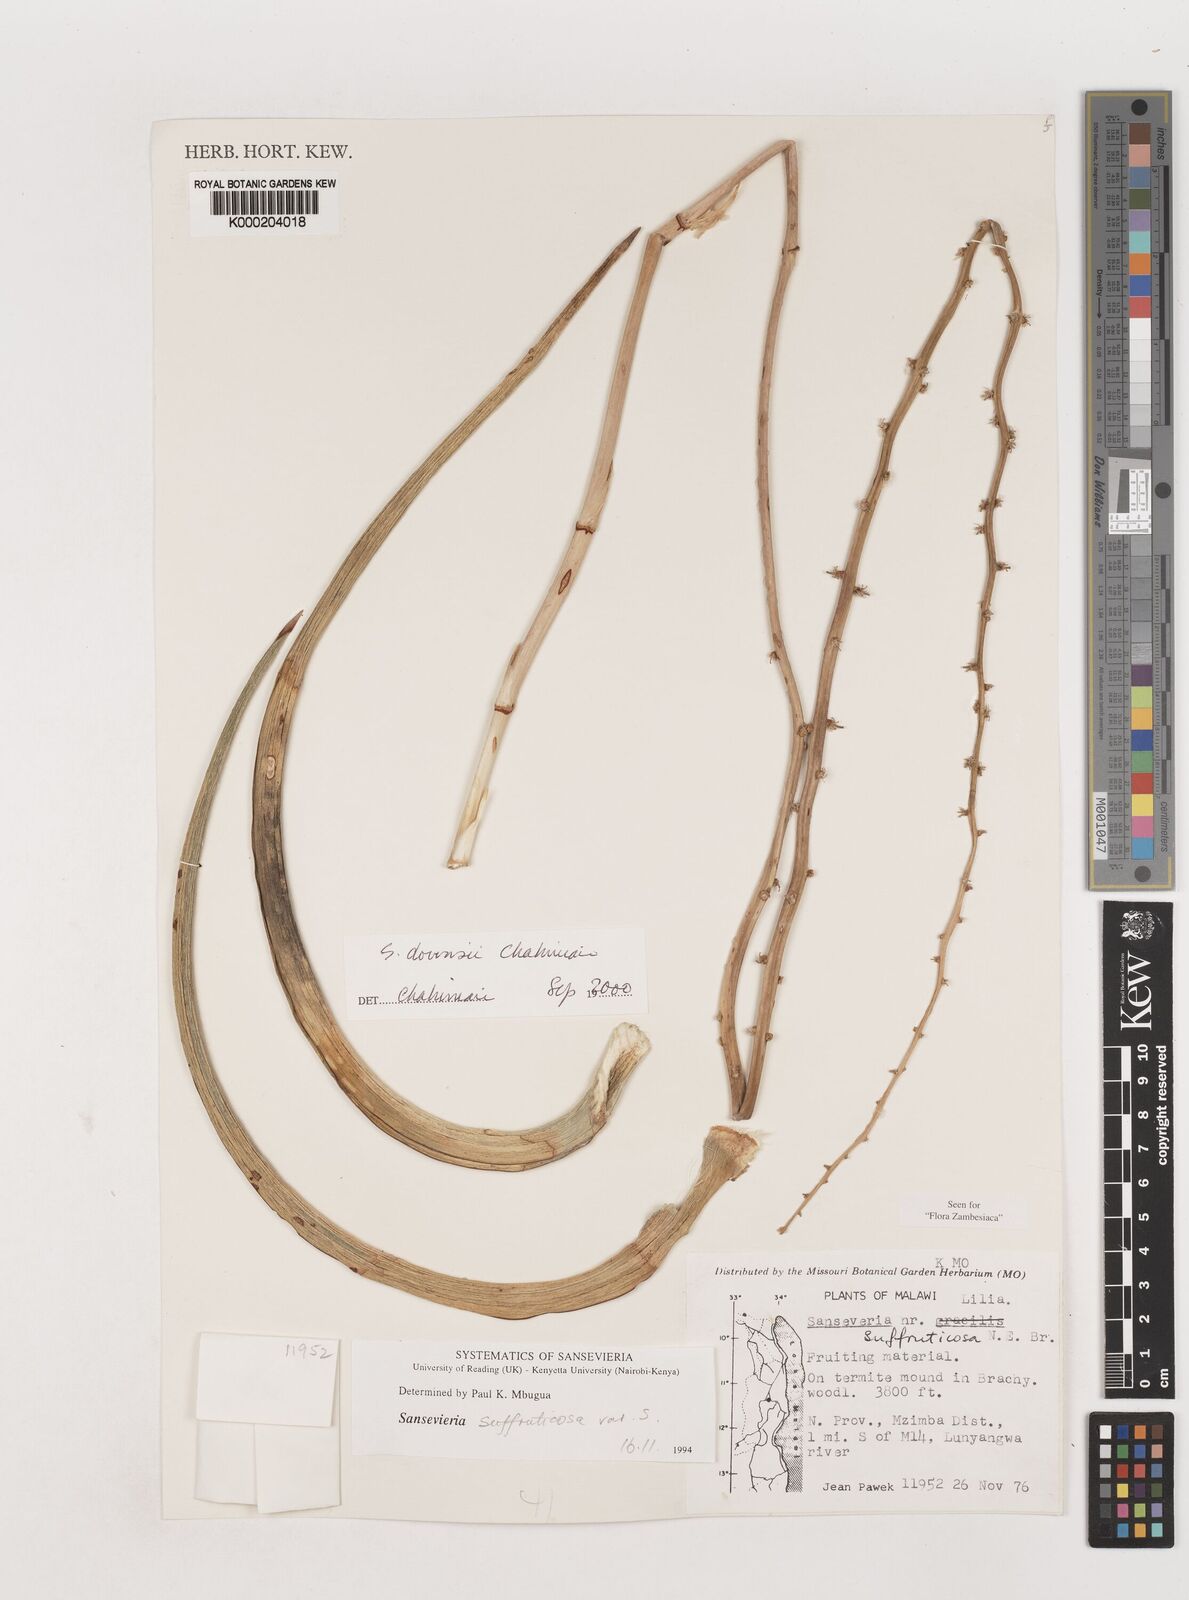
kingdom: Plantae
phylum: Tracheophyta
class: Liliopsida
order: Asparagales
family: Asparagaceae
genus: Dracaena
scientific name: Dracaena downsii
